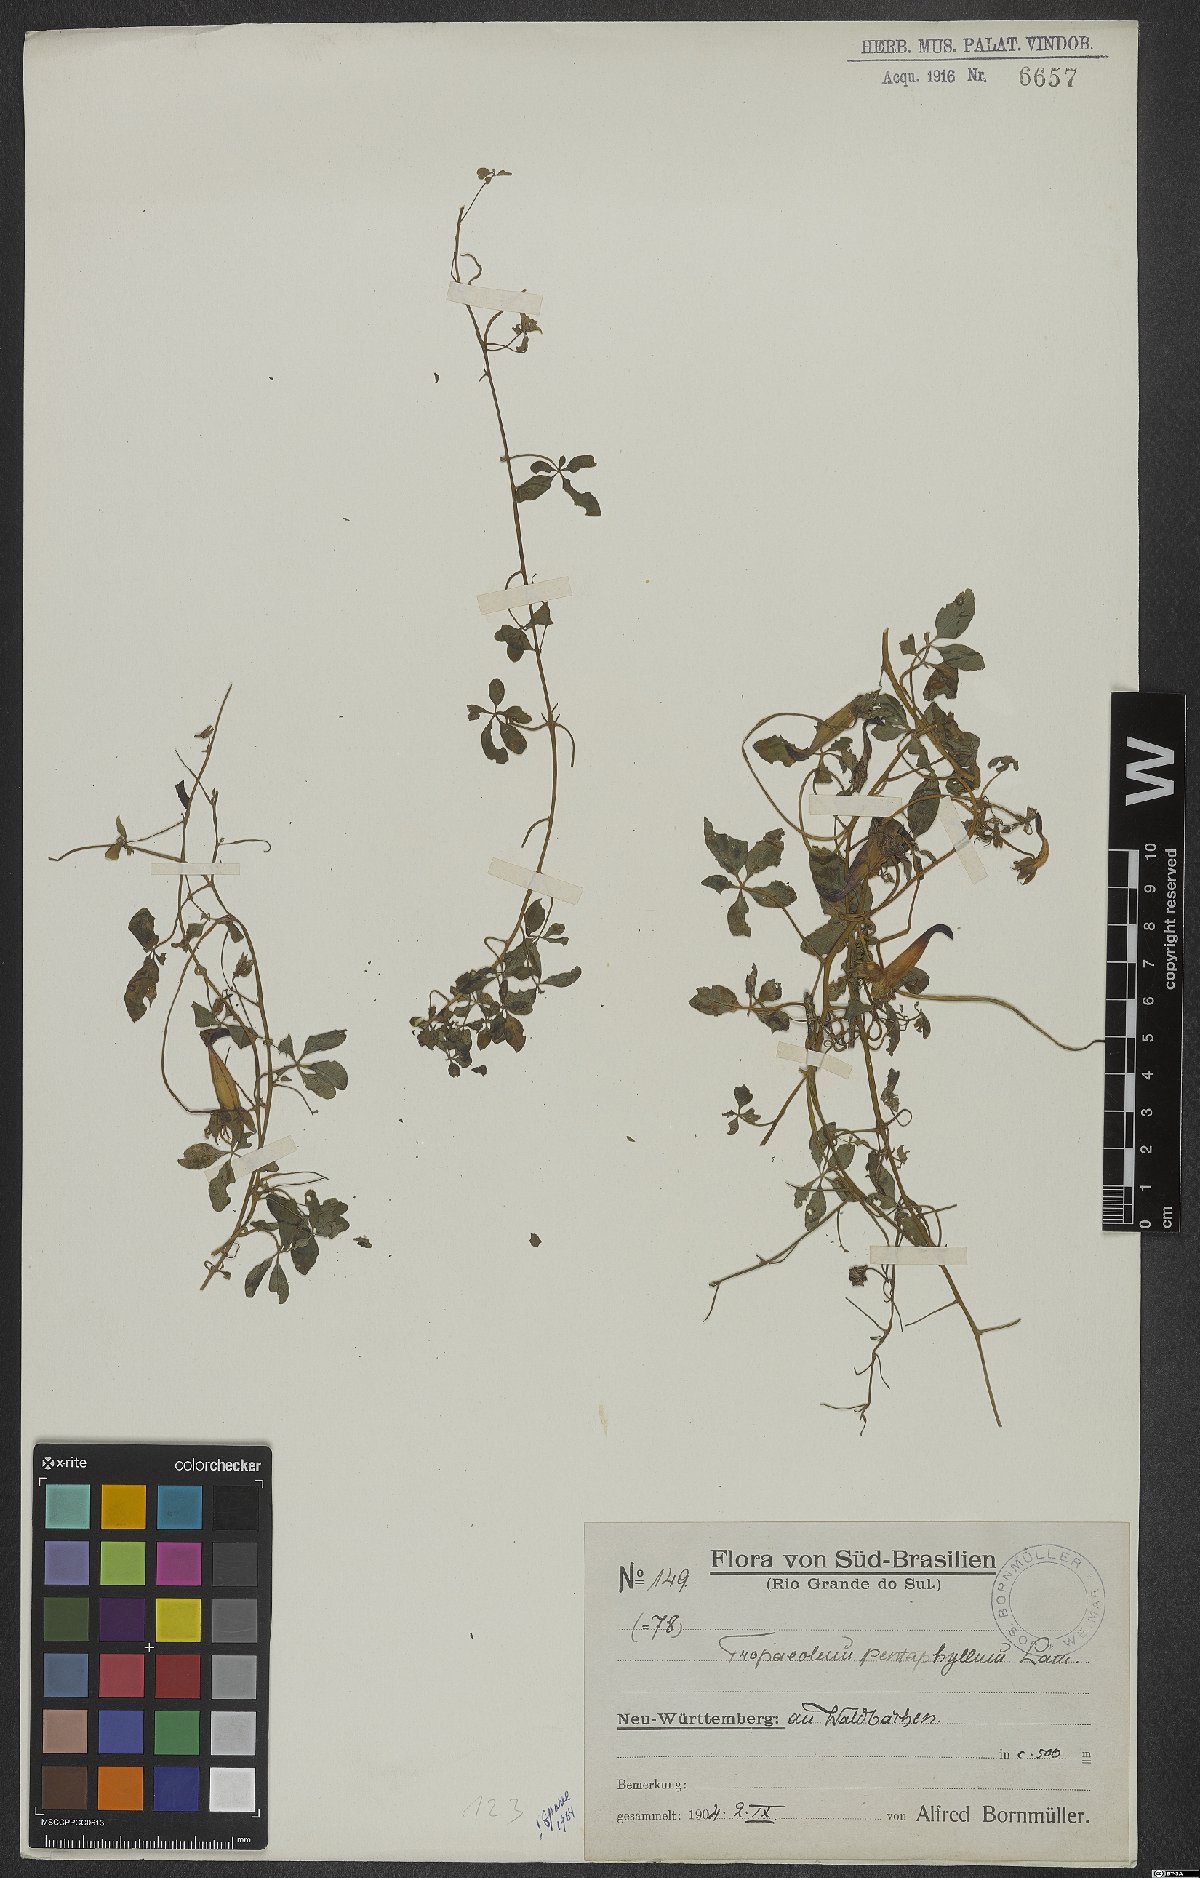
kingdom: Plantae
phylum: Tracheophyta
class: Magnoliopsida
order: Brassicales
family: Tropaeolaceae
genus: Tropaeolum
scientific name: Tropaeolum pentaphyllum
